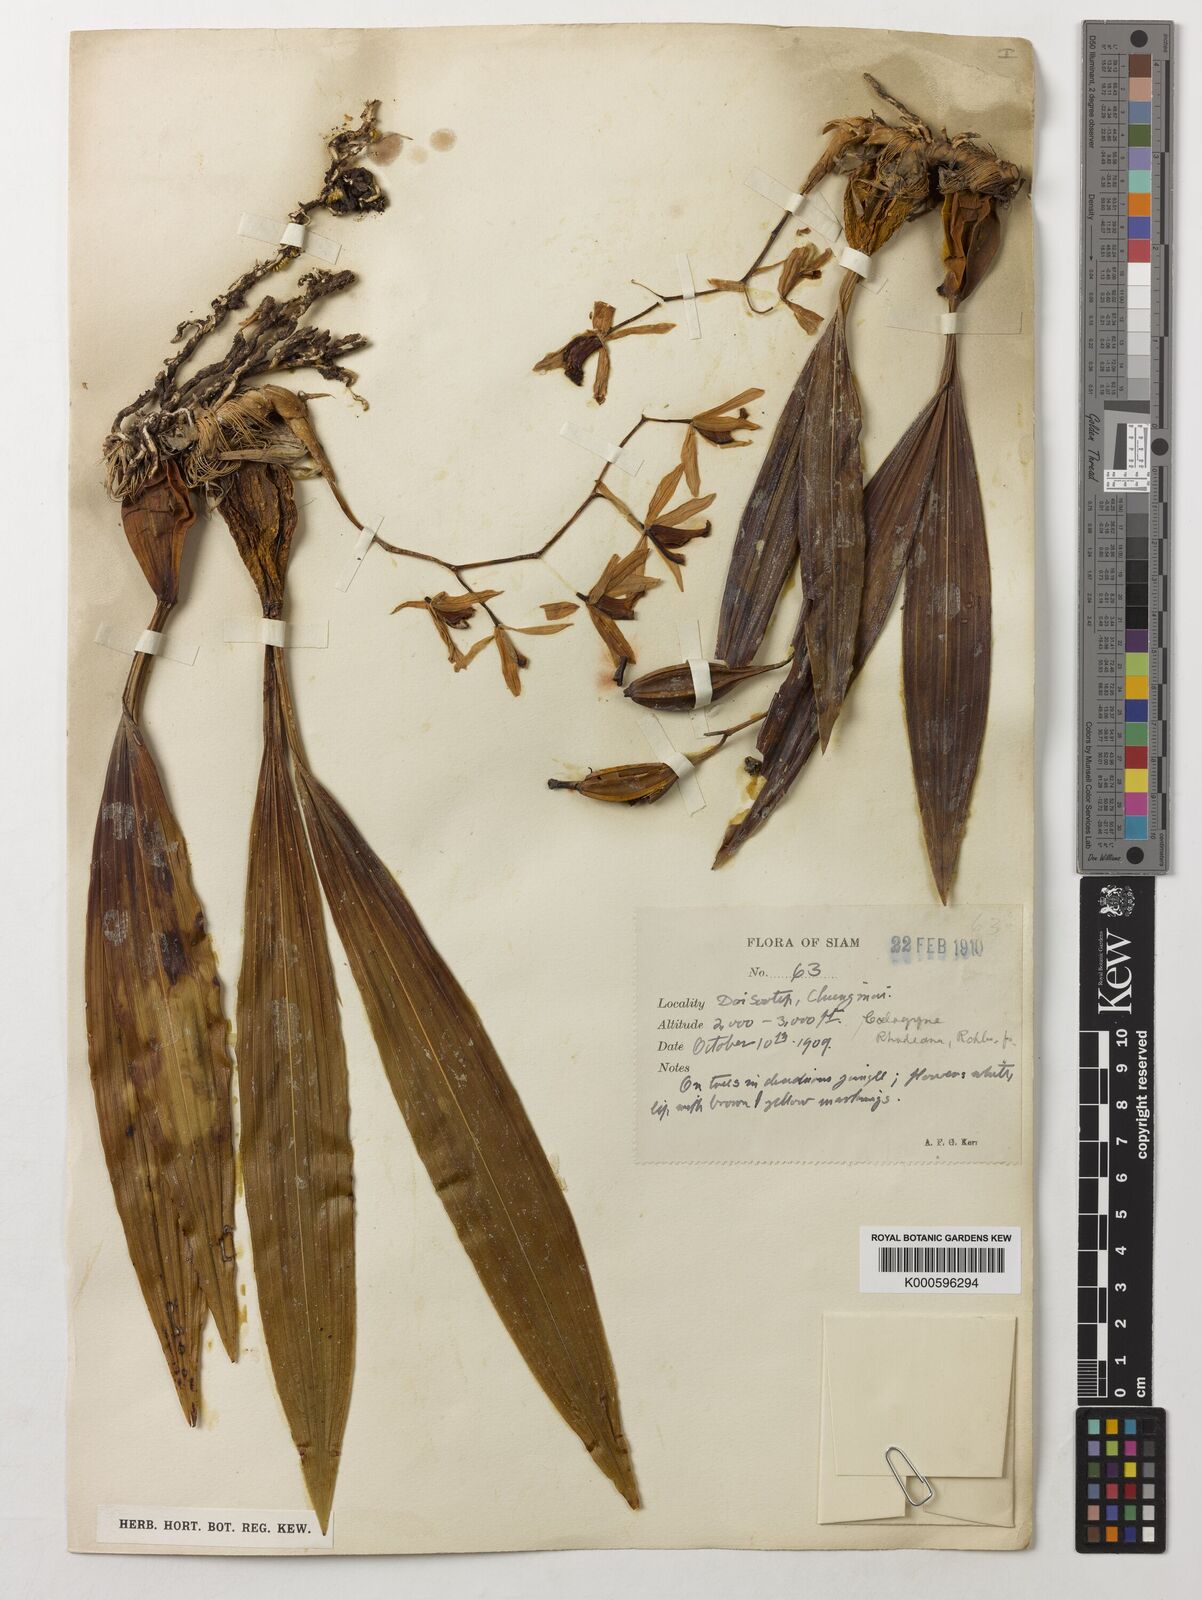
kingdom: Plantae
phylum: Tracheophyta
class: Liliopsida
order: Asparagales
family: Orchidaceae
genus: Coelogyne
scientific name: Coelogyne trinervis
